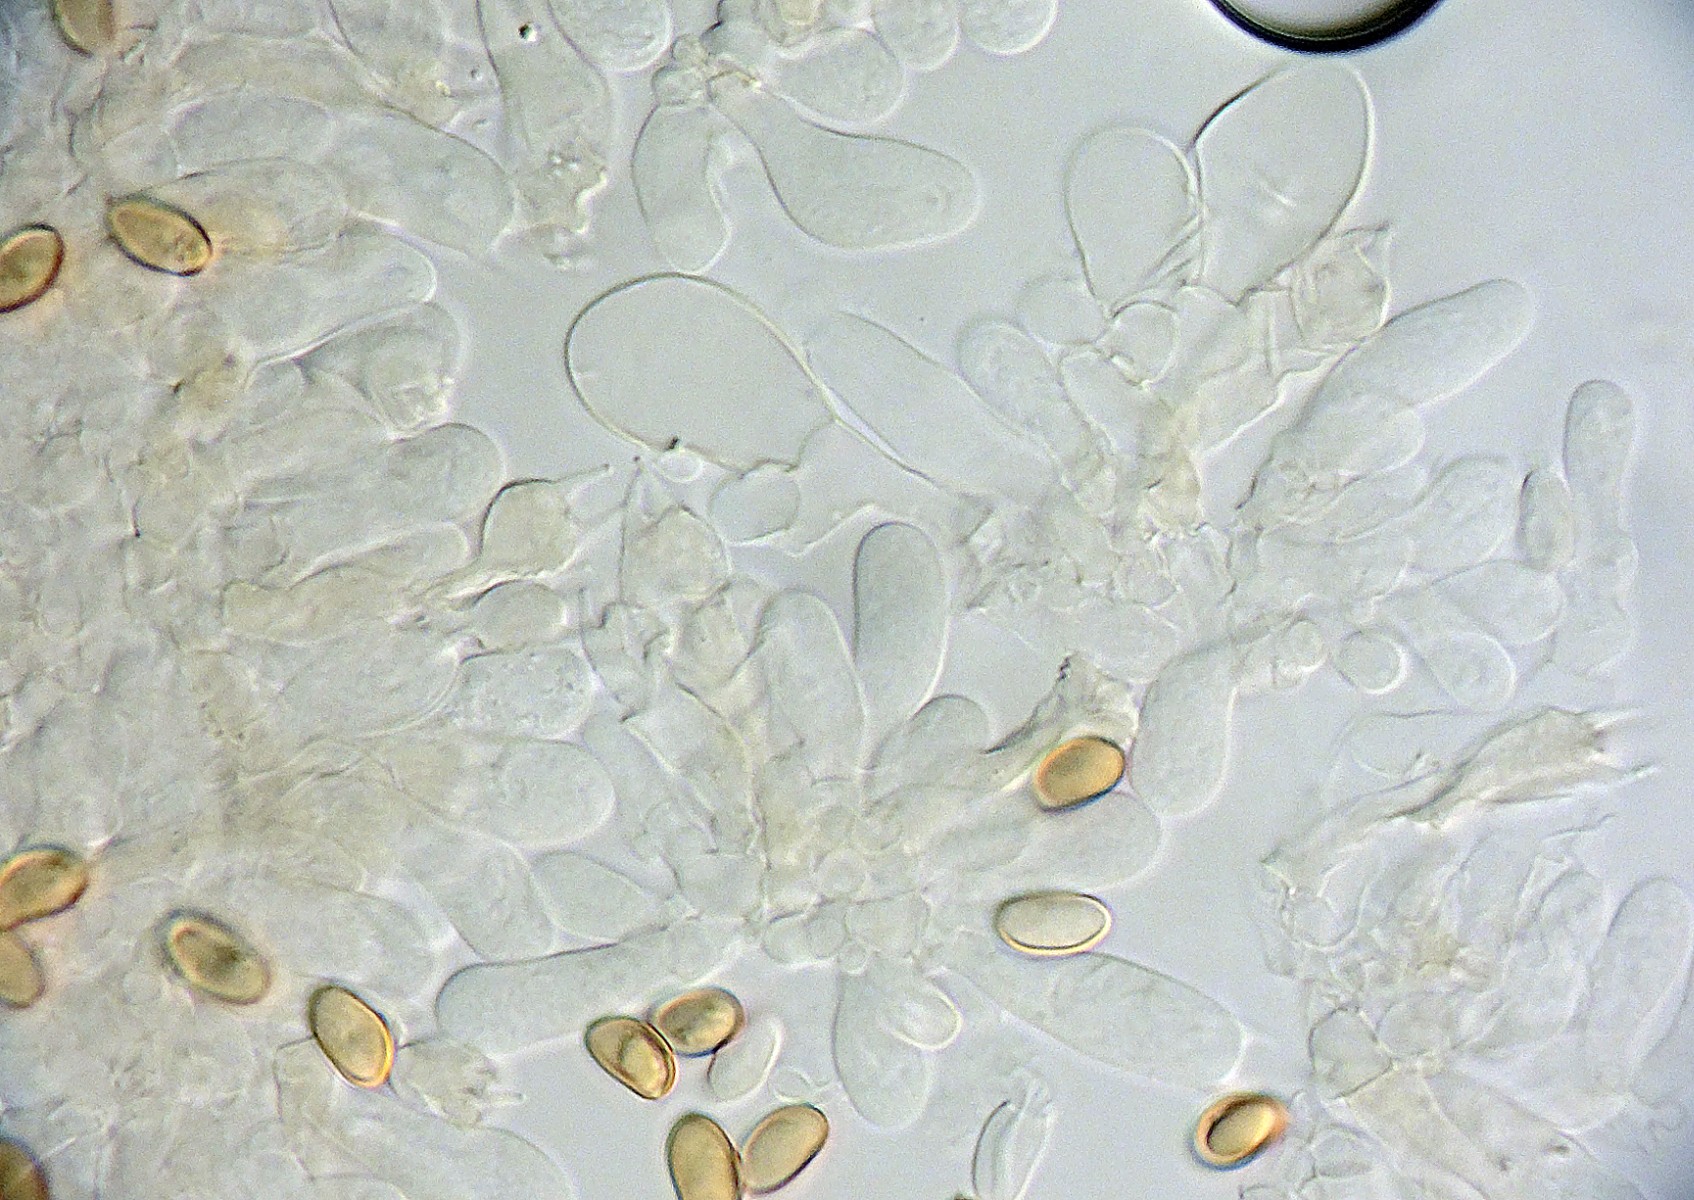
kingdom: Fungi
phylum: Basidiomycota
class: Agaricomycetes
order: Agaricales
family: Inocybaceae
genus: Mallocybe
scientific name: Mallocybe
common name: Trævlhat
